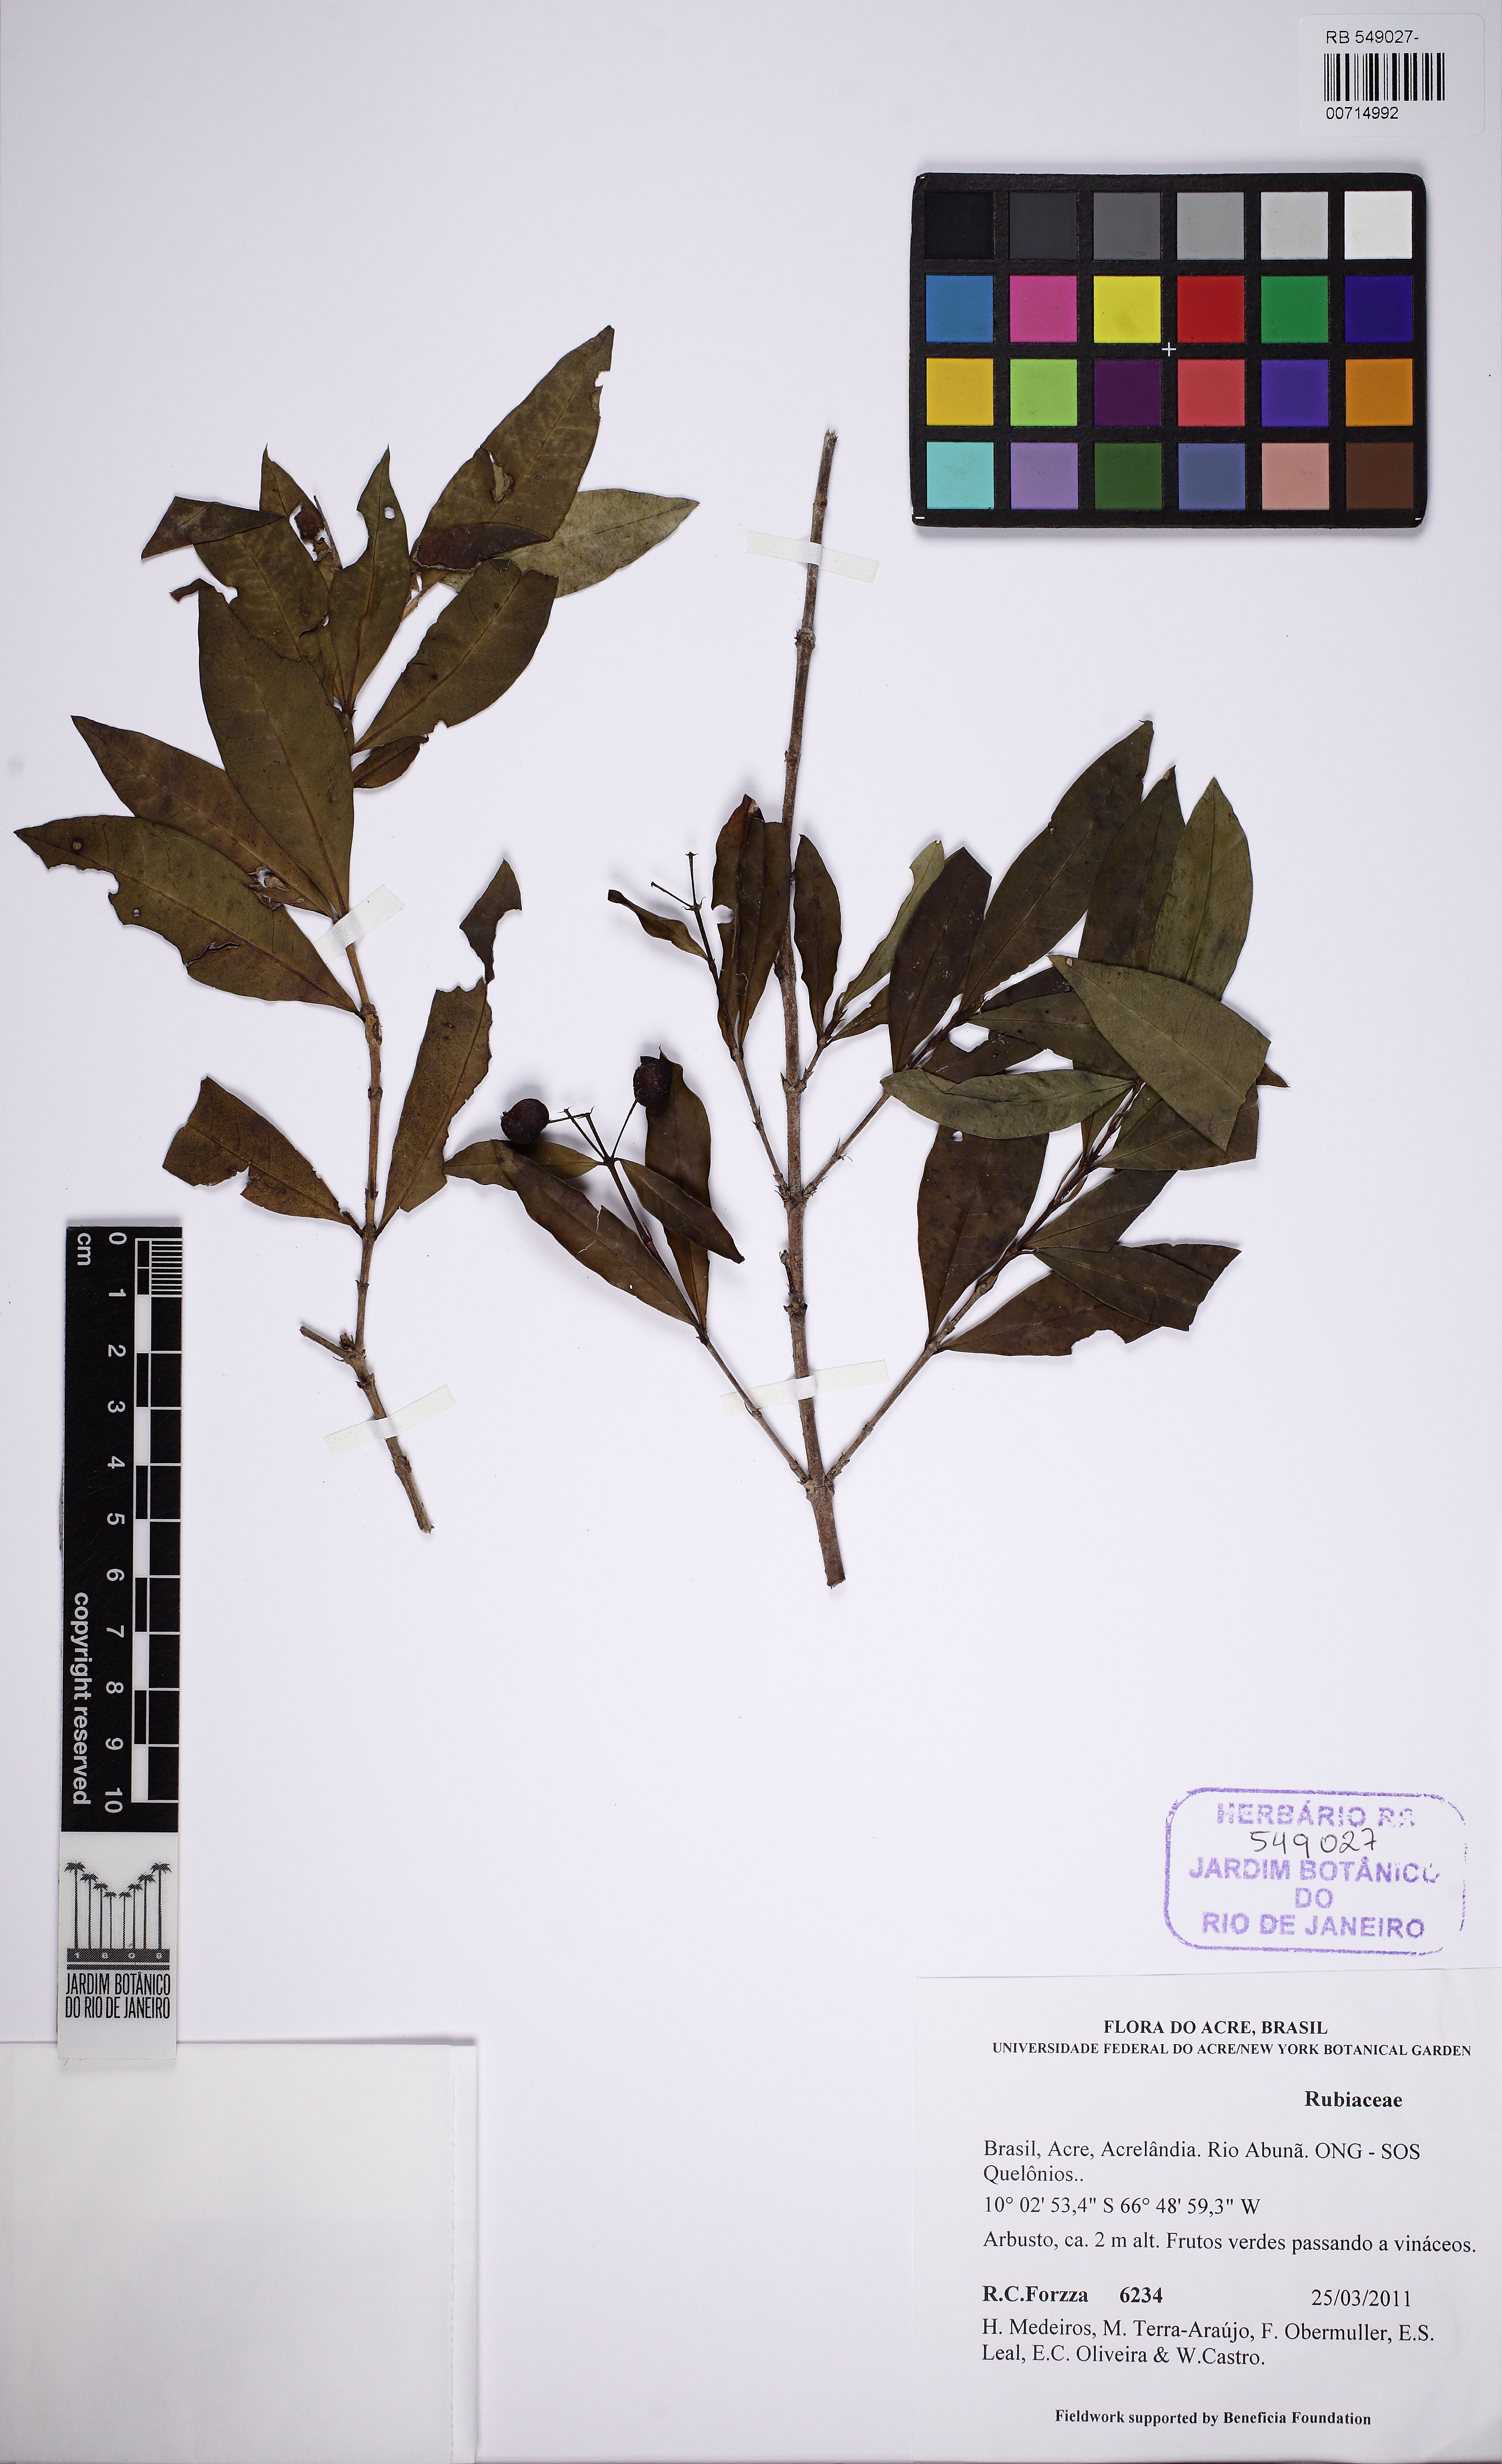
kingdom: Plantae
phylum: Tracheophyta
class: Magnoliopsida
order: Gentianales
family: Rubiaceae
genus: Ixora
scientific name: Ixora
